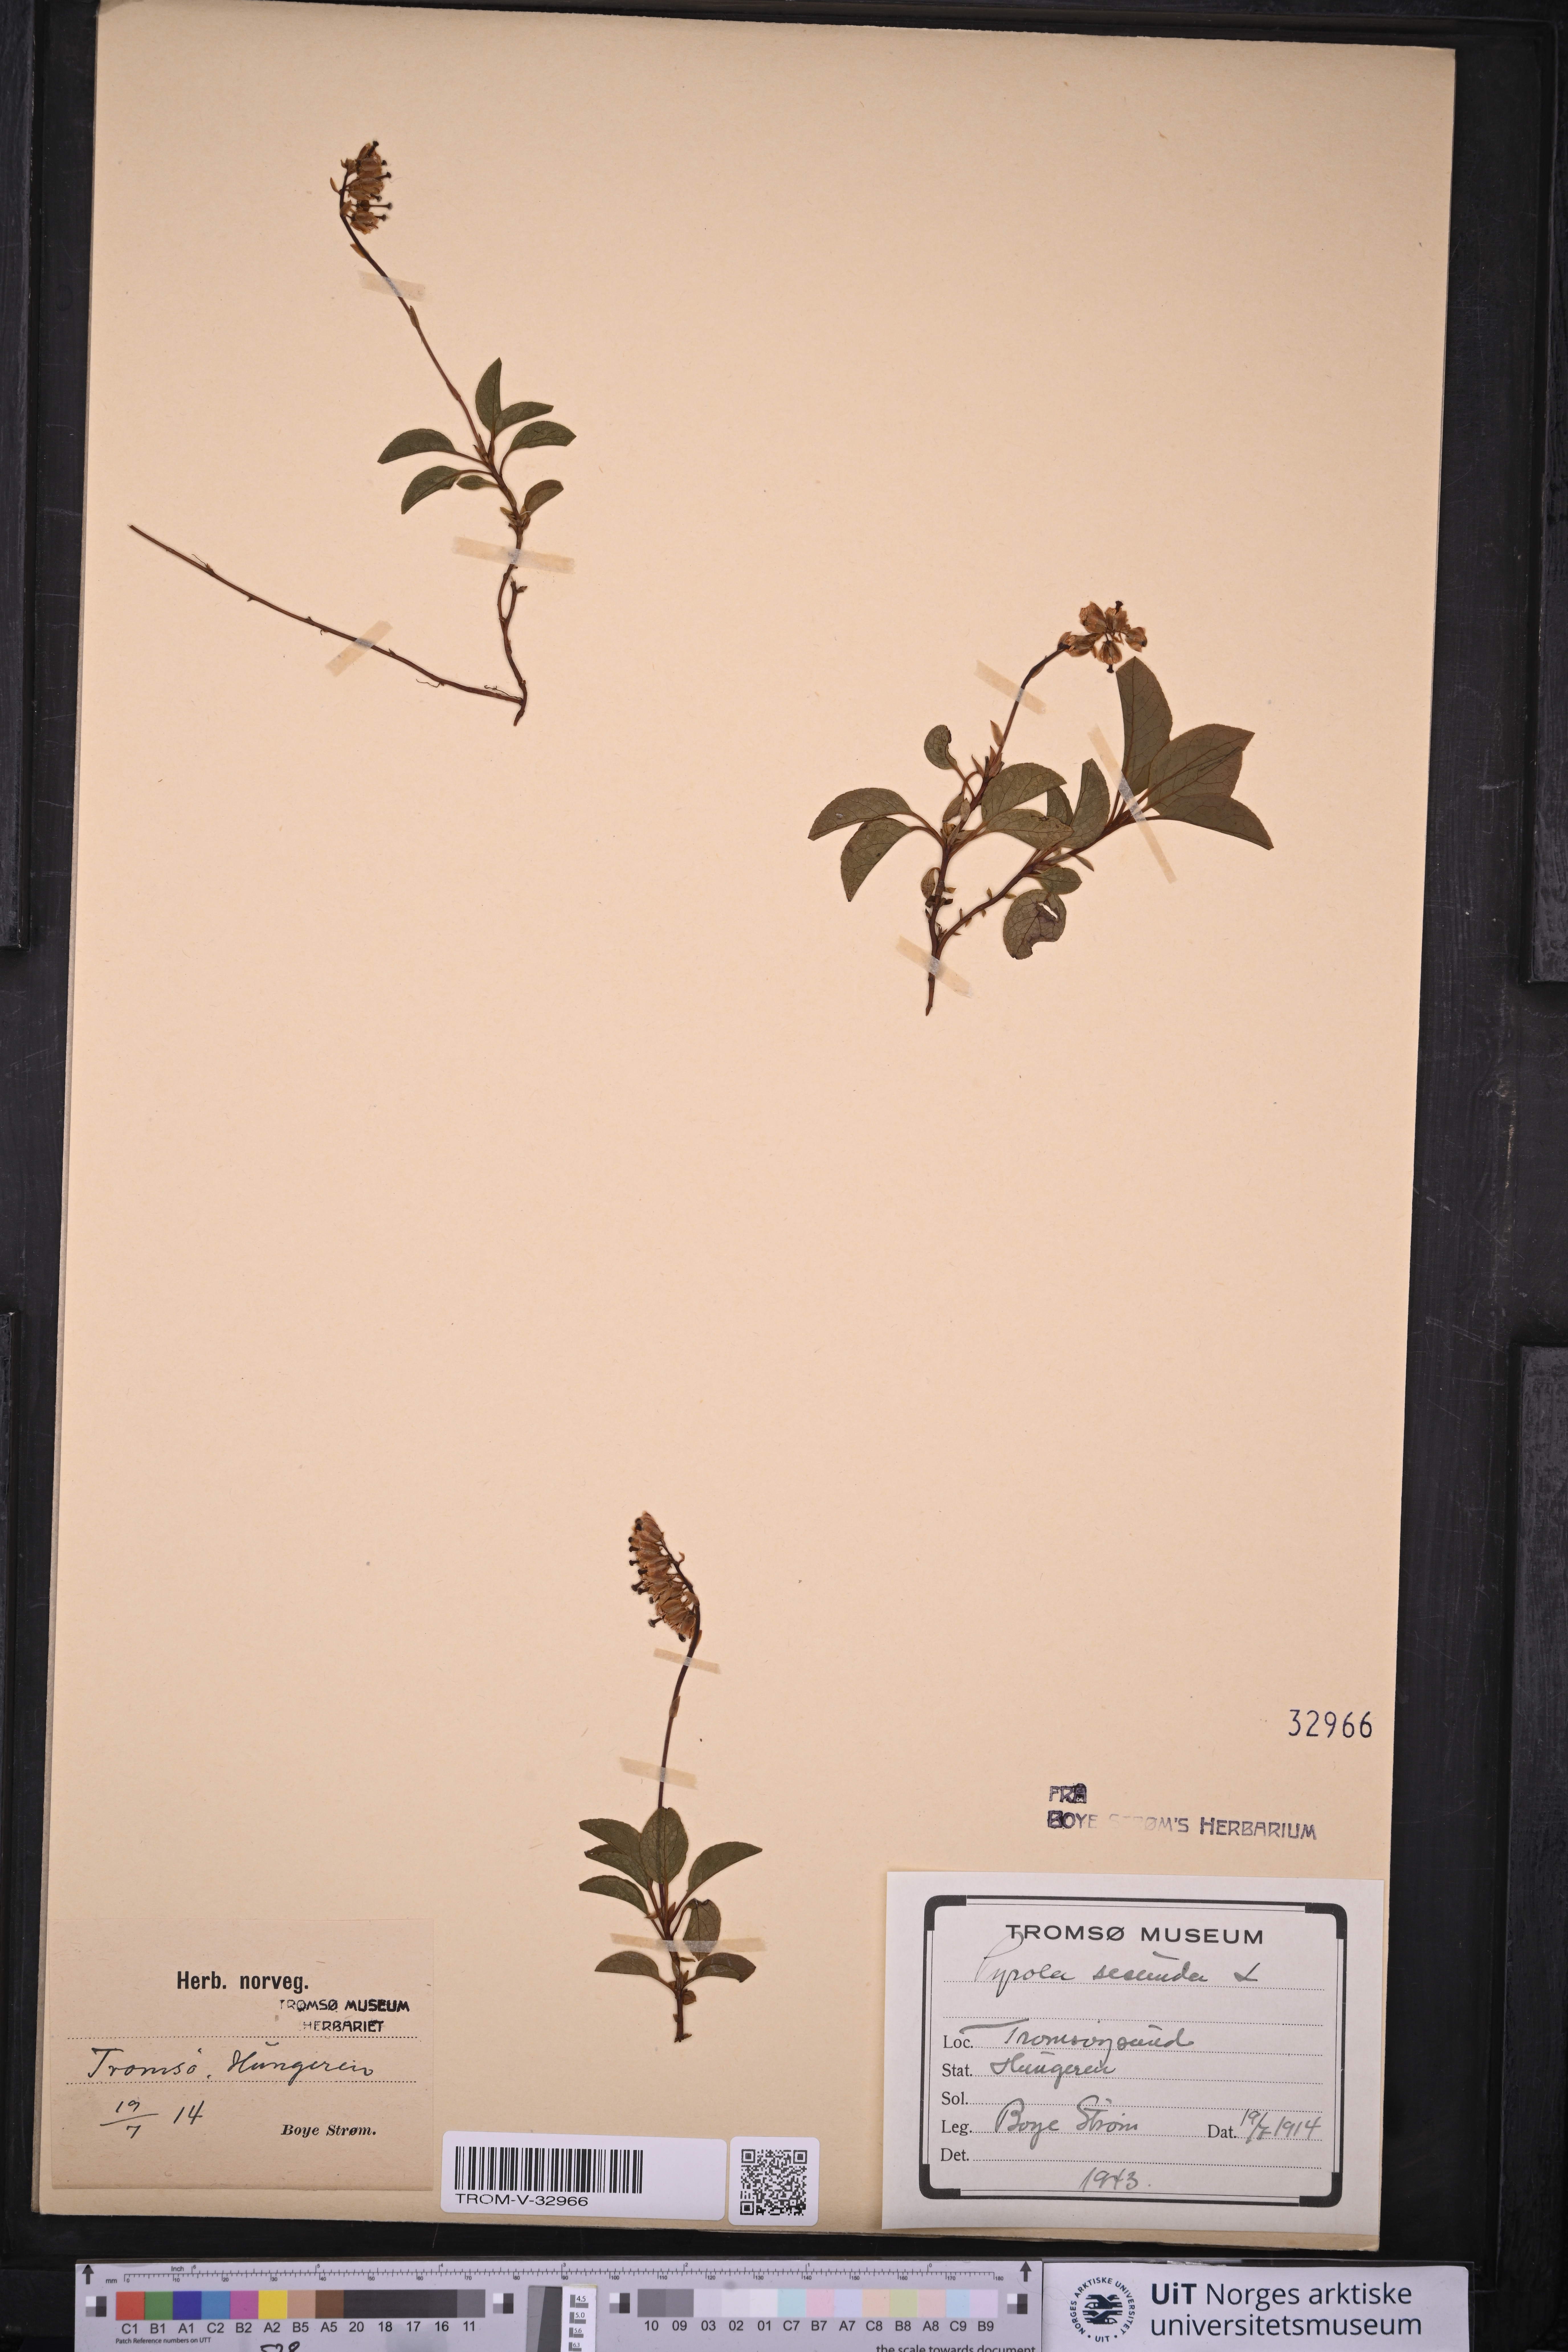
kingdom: Plantae
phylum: Tracheophyta
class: Magnoliopsida
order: Ericales
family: Ericaceae
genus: Orthilia
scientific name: Orthilia secunda
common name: One-sided orthilia
